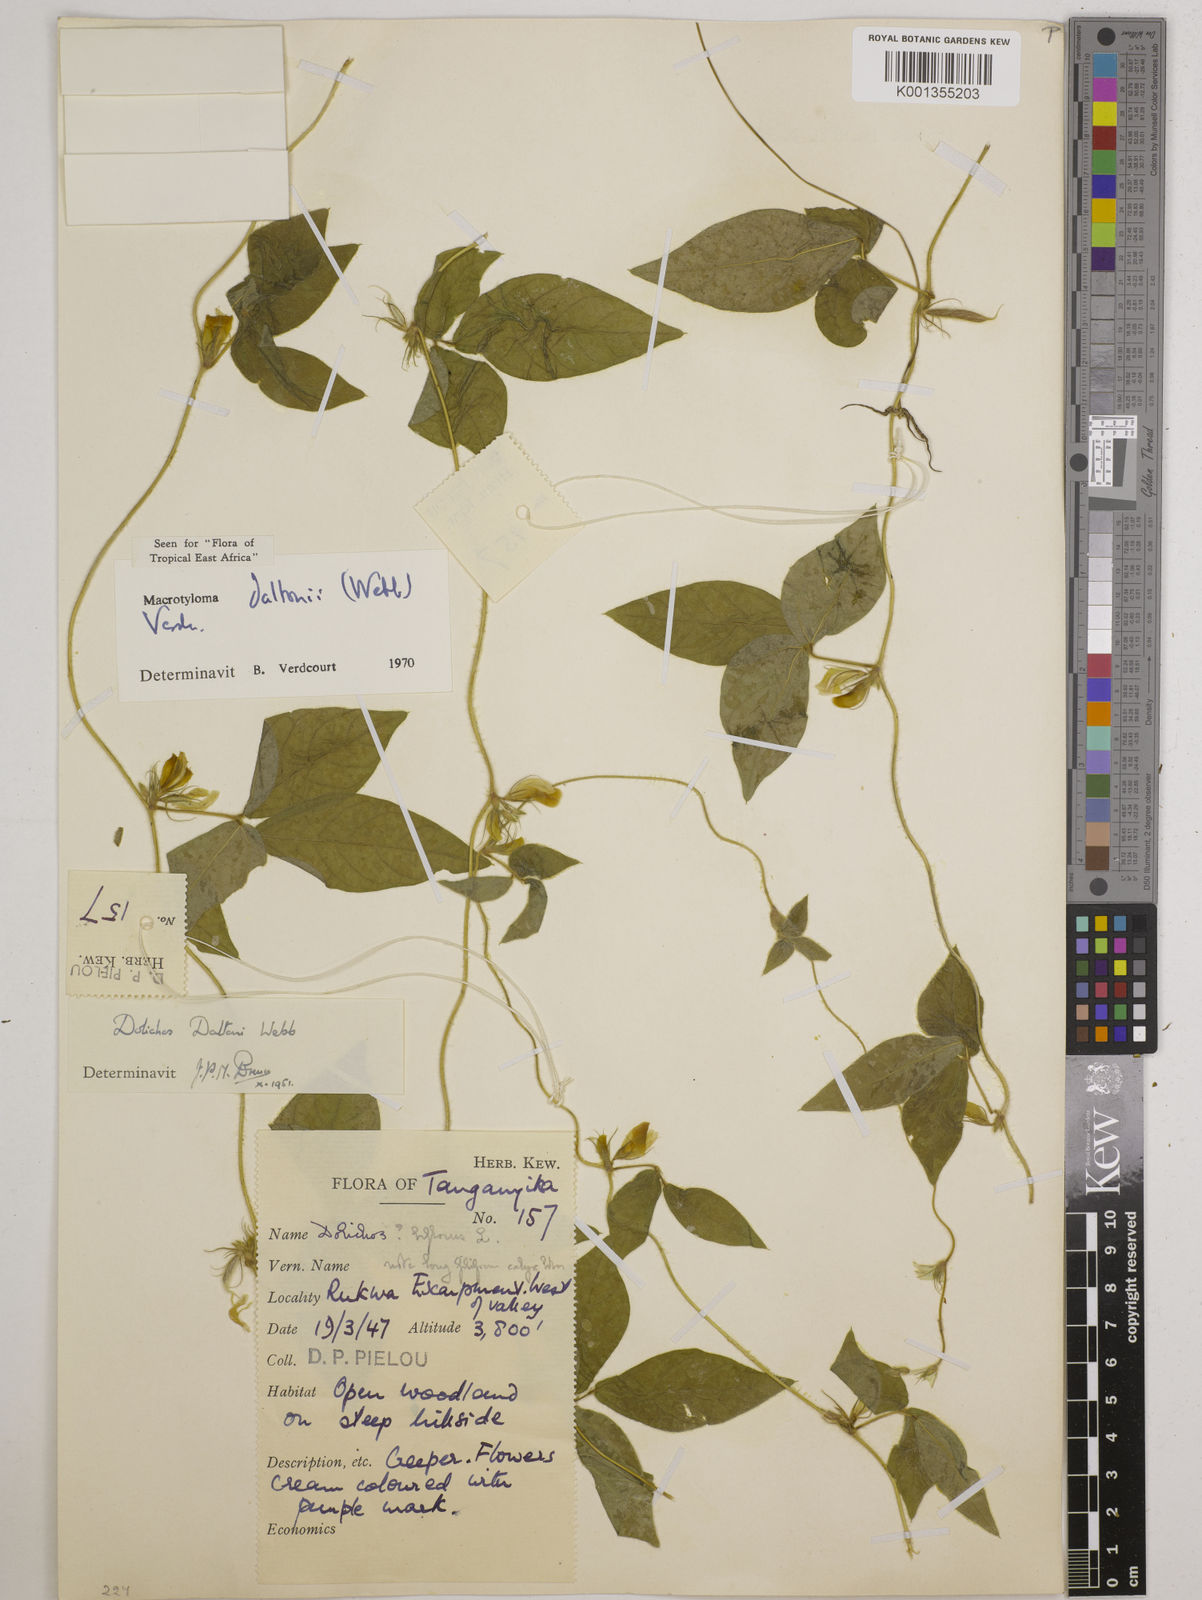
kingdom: Plantae
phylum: Tracheophyta
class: Magnoliopsida
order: Fabales
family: Fabaceae
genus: Macrotyloma
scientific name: Macrotyloma daltonii
